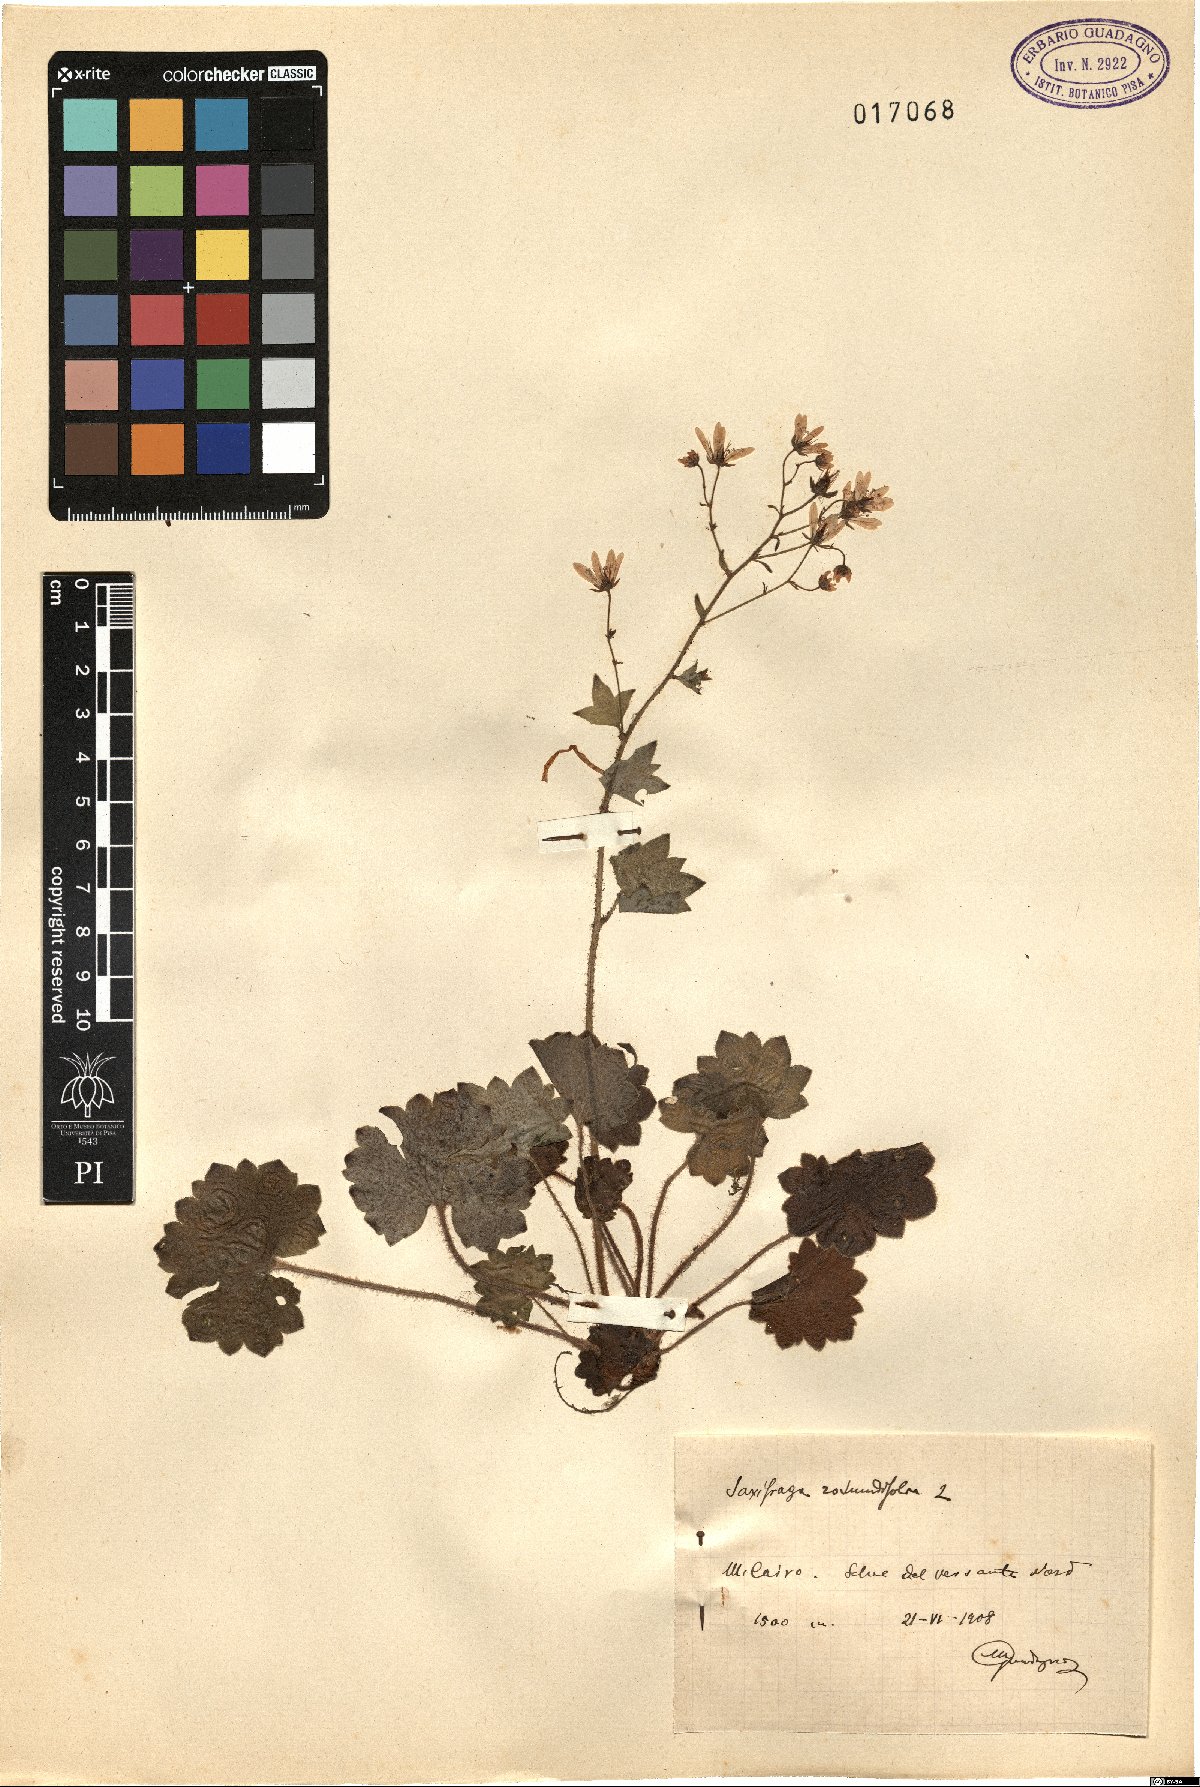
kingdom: Plantae
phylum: Tracheophyta
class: Magnoliopsida
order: Saxifragales
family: Saxifragaceae
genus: Saxifraga
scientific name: Saxifraga rotundifolia
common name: Round-leaved saxifrage
